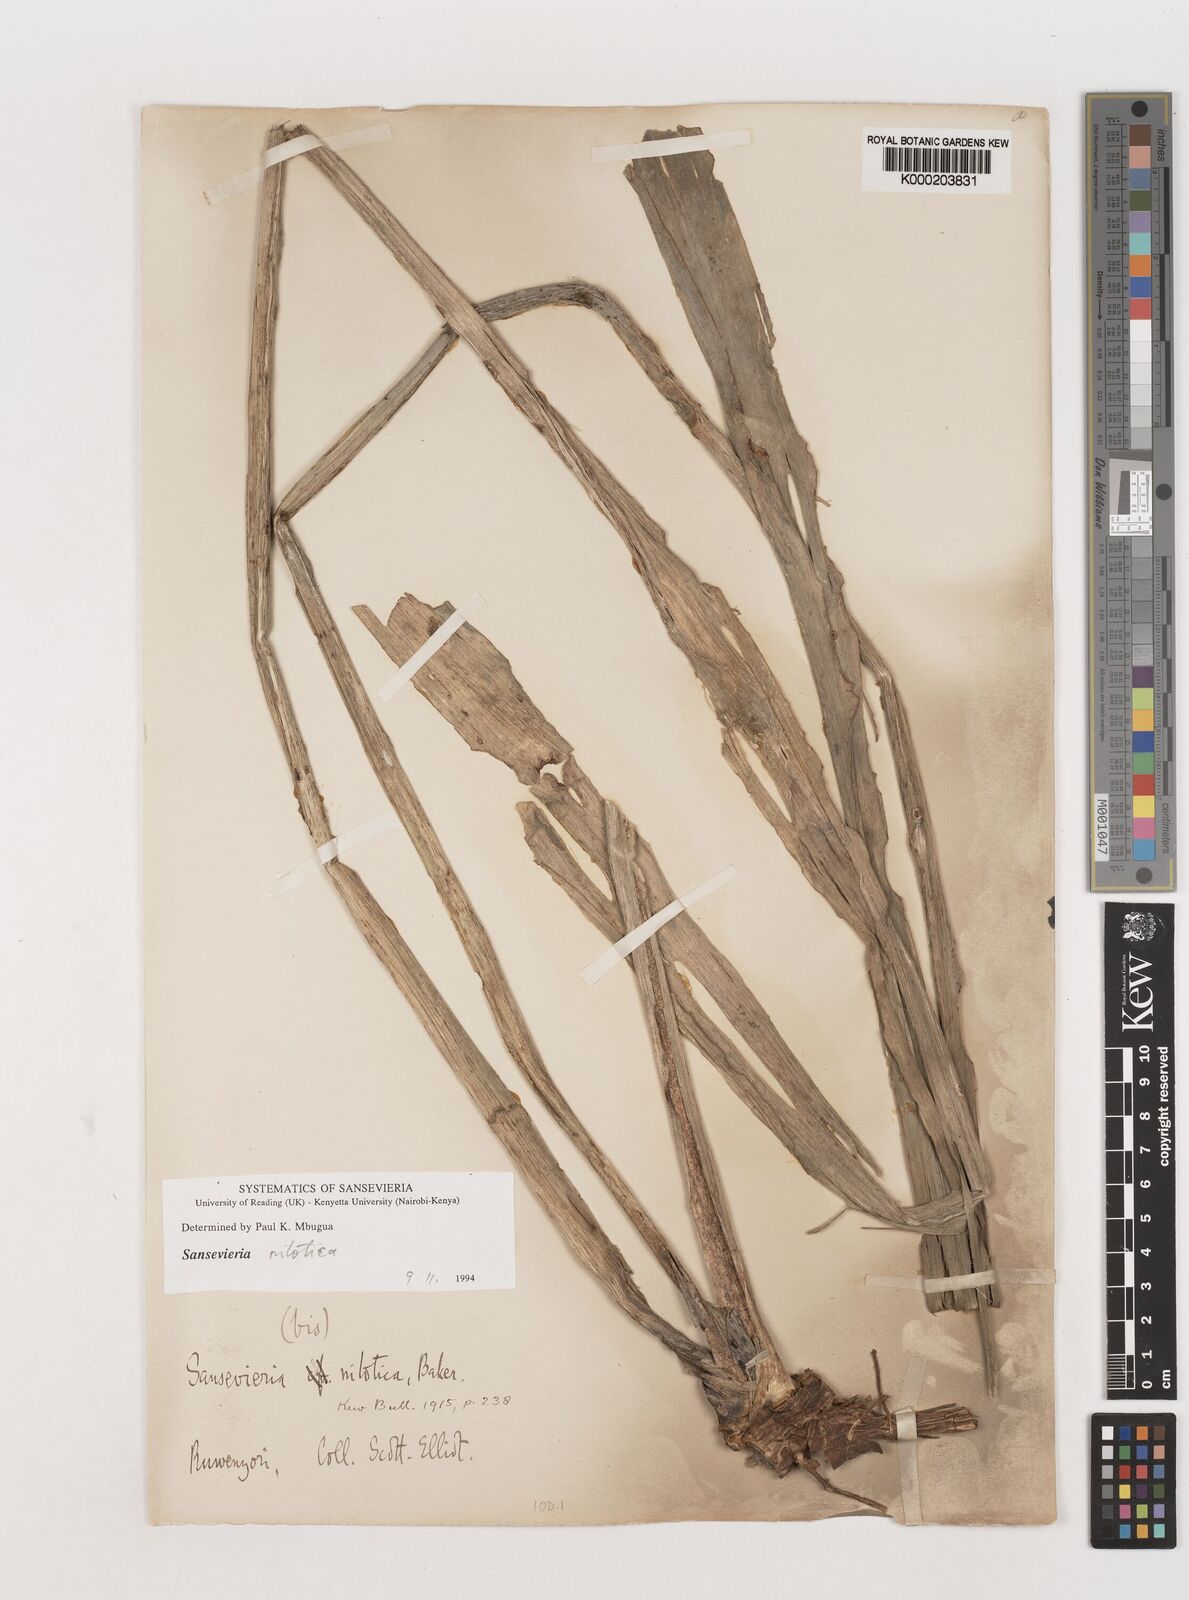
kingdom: Plantae
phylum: Tracheophyta
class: Liliopsida
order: Asparagales
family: Asparagaceae
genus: Dracaena
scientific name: Dracaena nilotica
